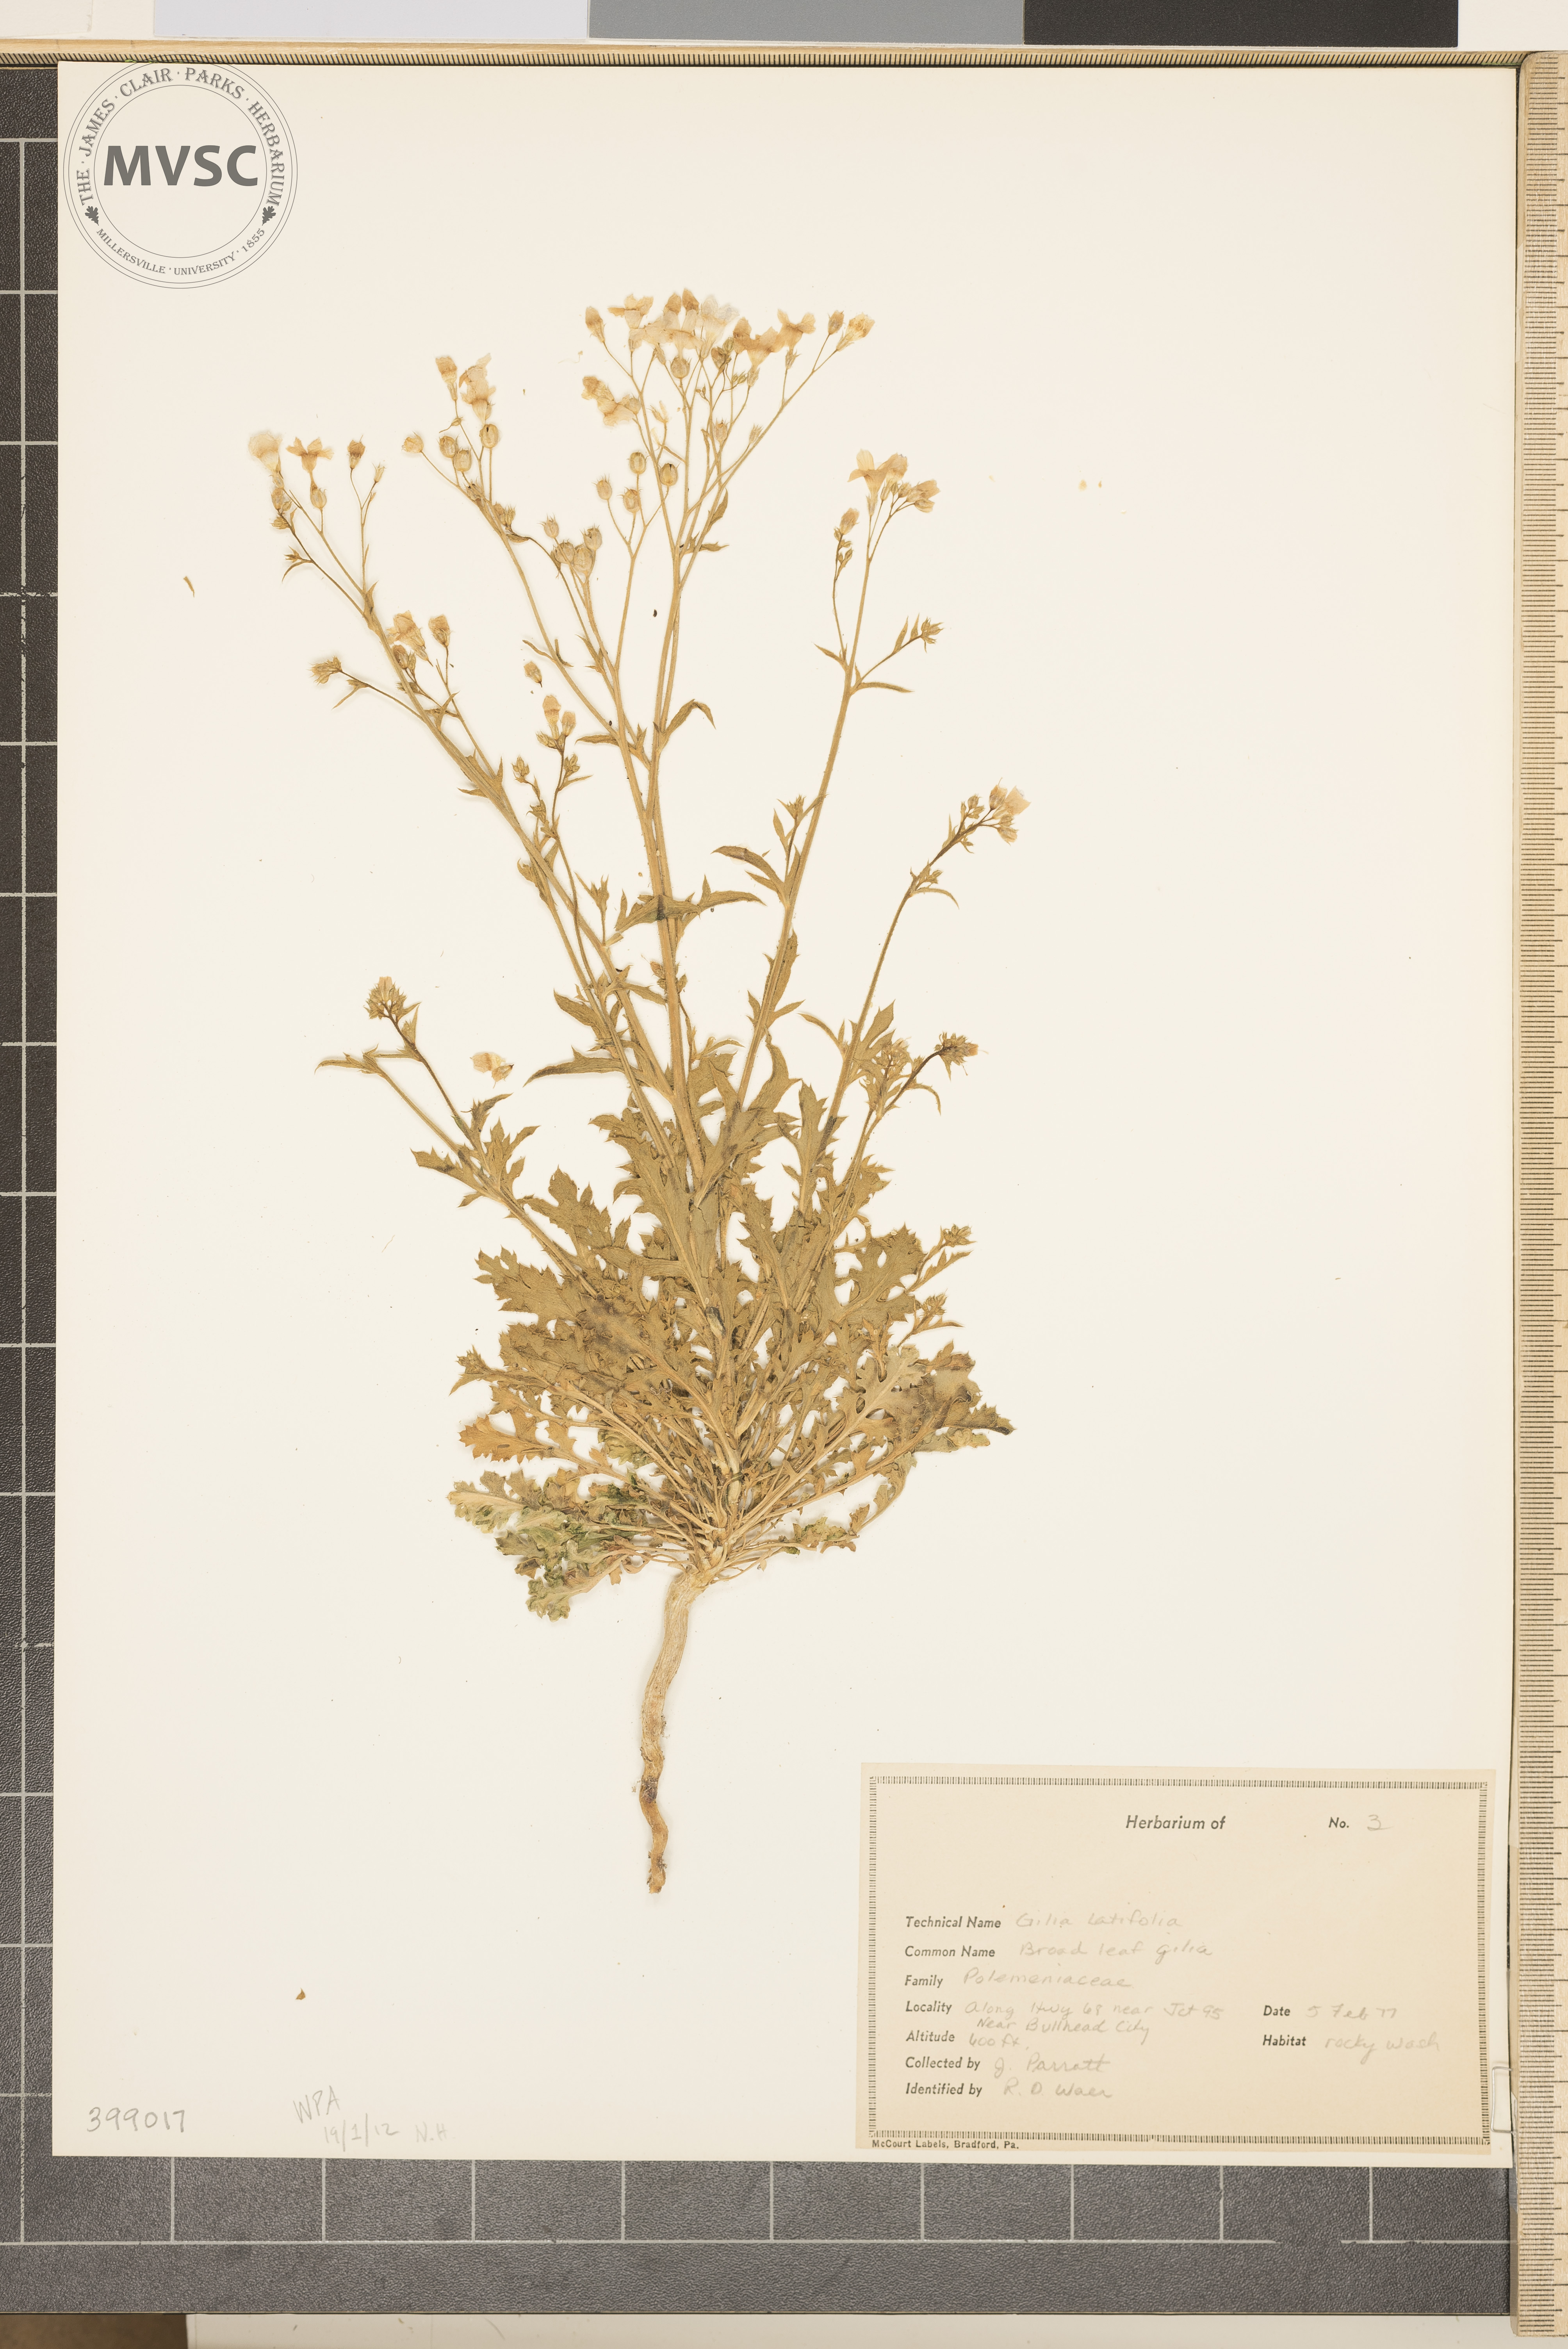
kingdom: Plantae
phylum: Tracheophyta
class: Magnoliopsida
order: Ericales
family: Polemoniaceae
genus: Aliciella
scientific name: Aliciella latifolia
